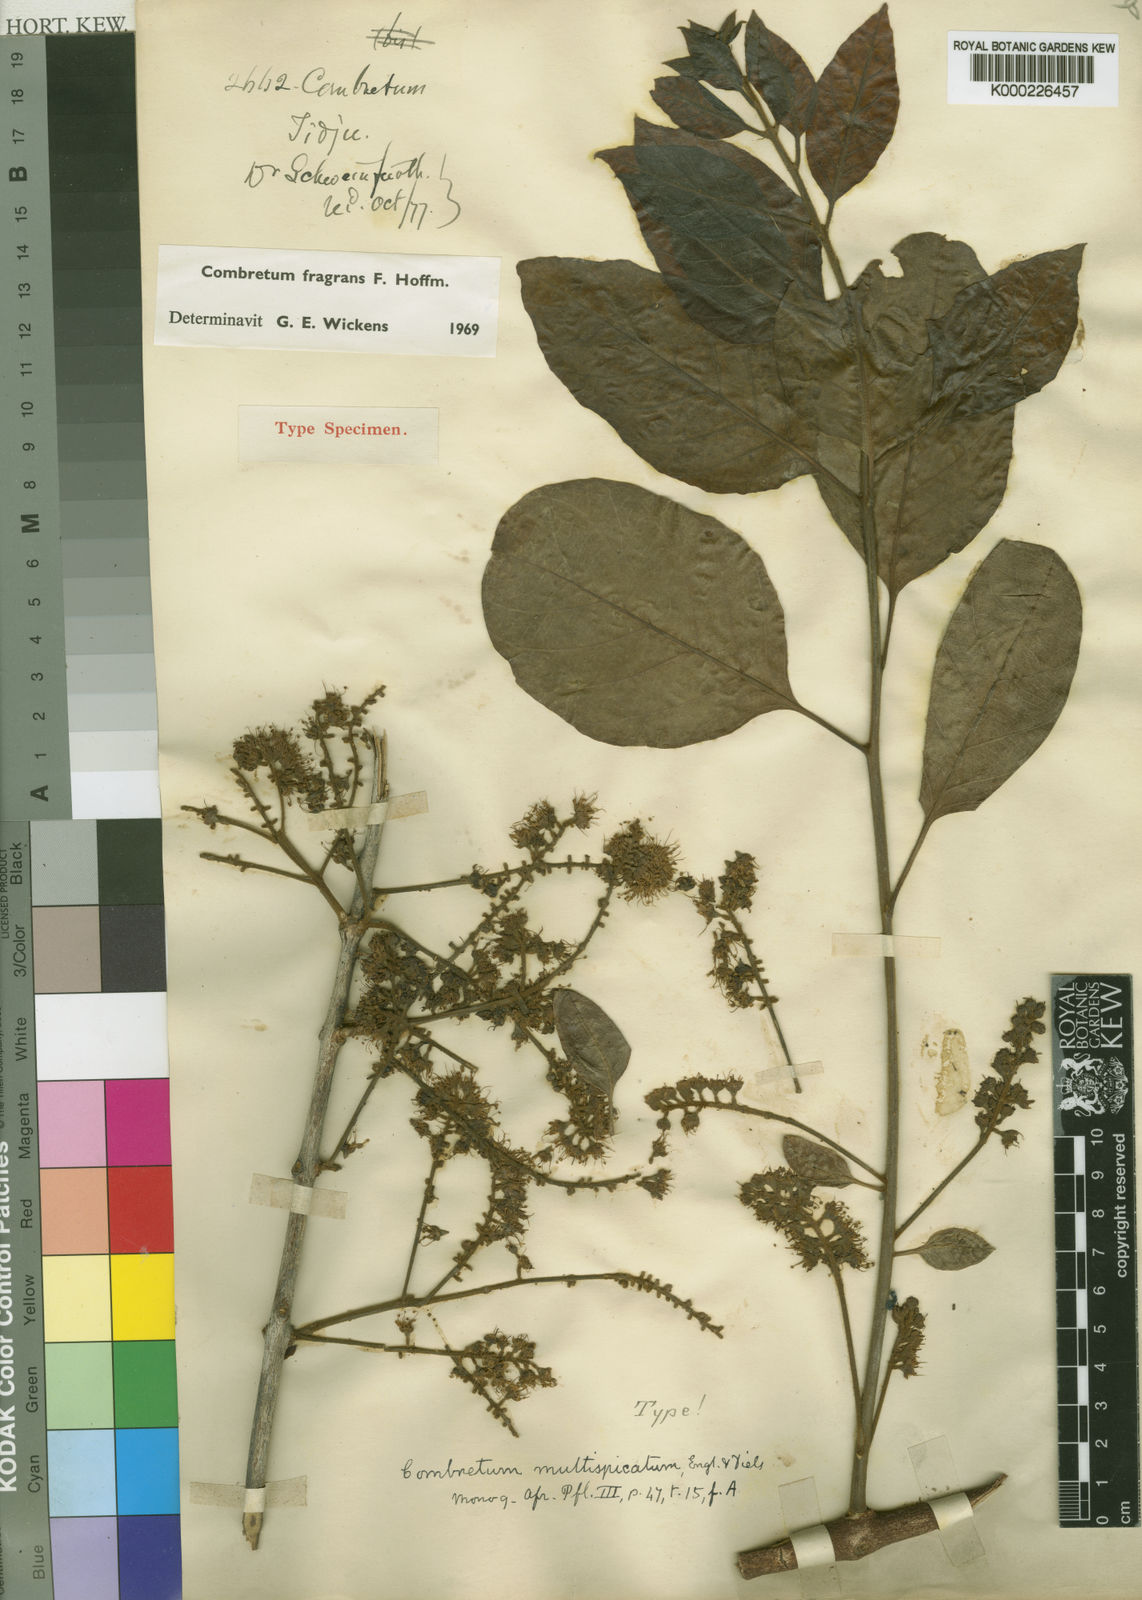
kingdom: Plantae
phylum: Tracheophyta
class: Magnoliopsida
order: Myrtales
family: Combretaceae
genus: Combretum
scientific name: Combretum adenogonium
